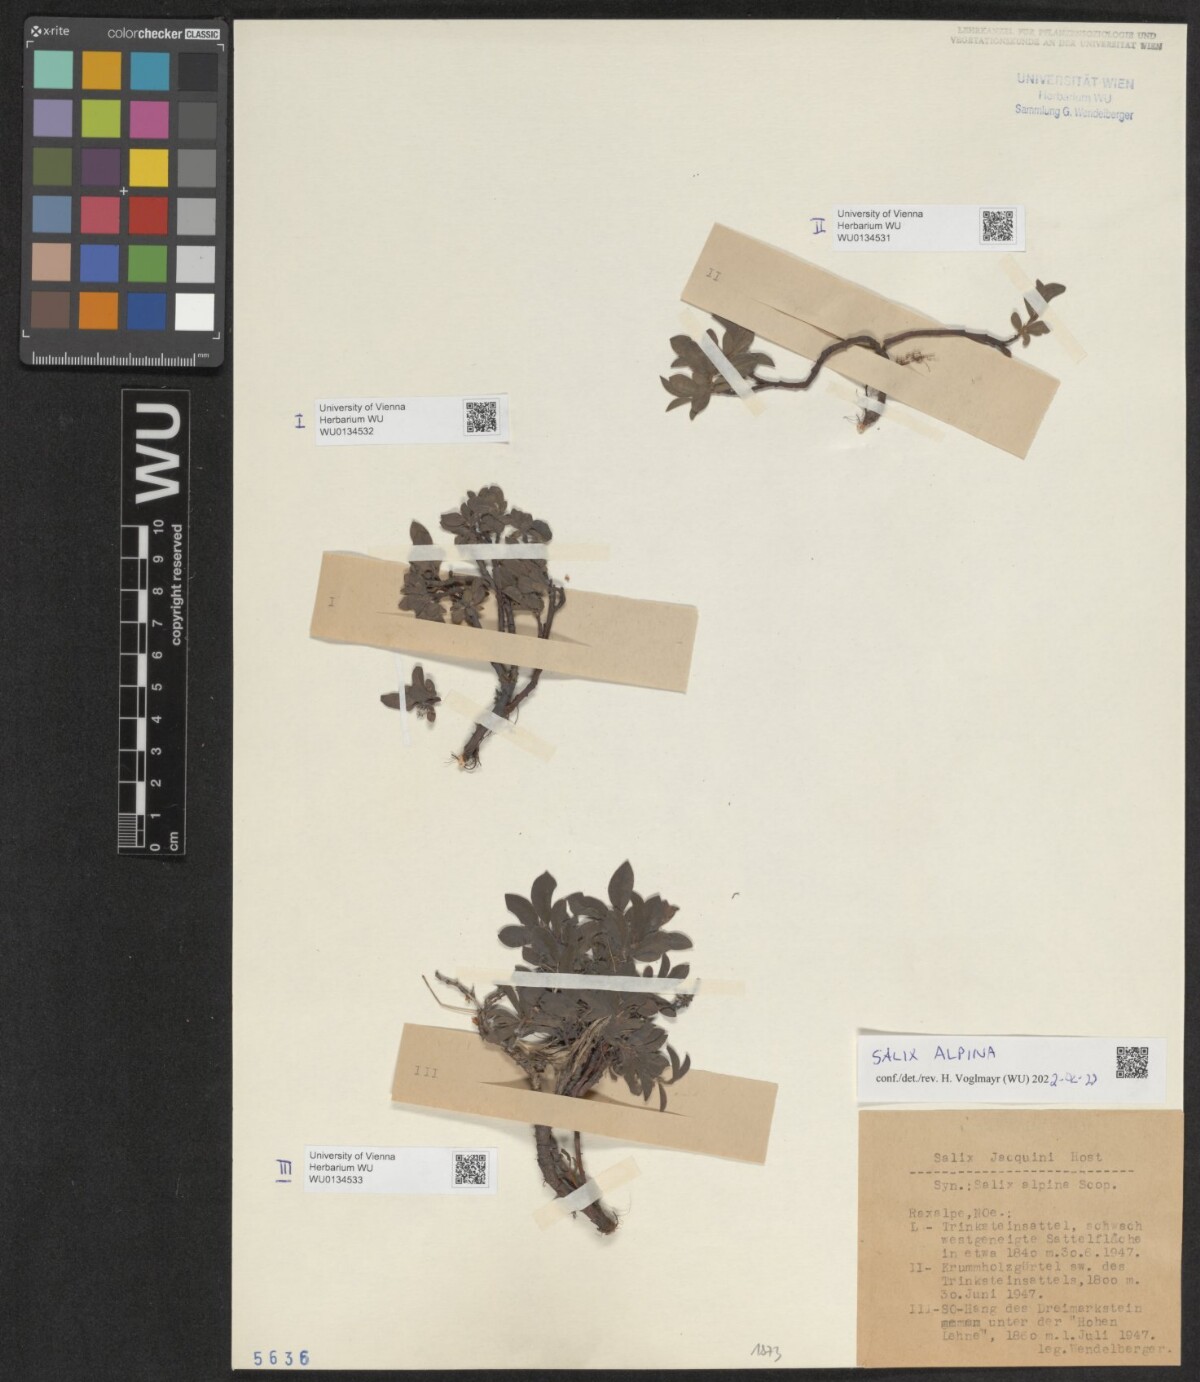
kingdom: Plantae
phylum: Tracheophyta
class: Magnoliopsida
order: Malpighiales
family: Salicaceae
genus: Salix
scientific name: Salix alpina
